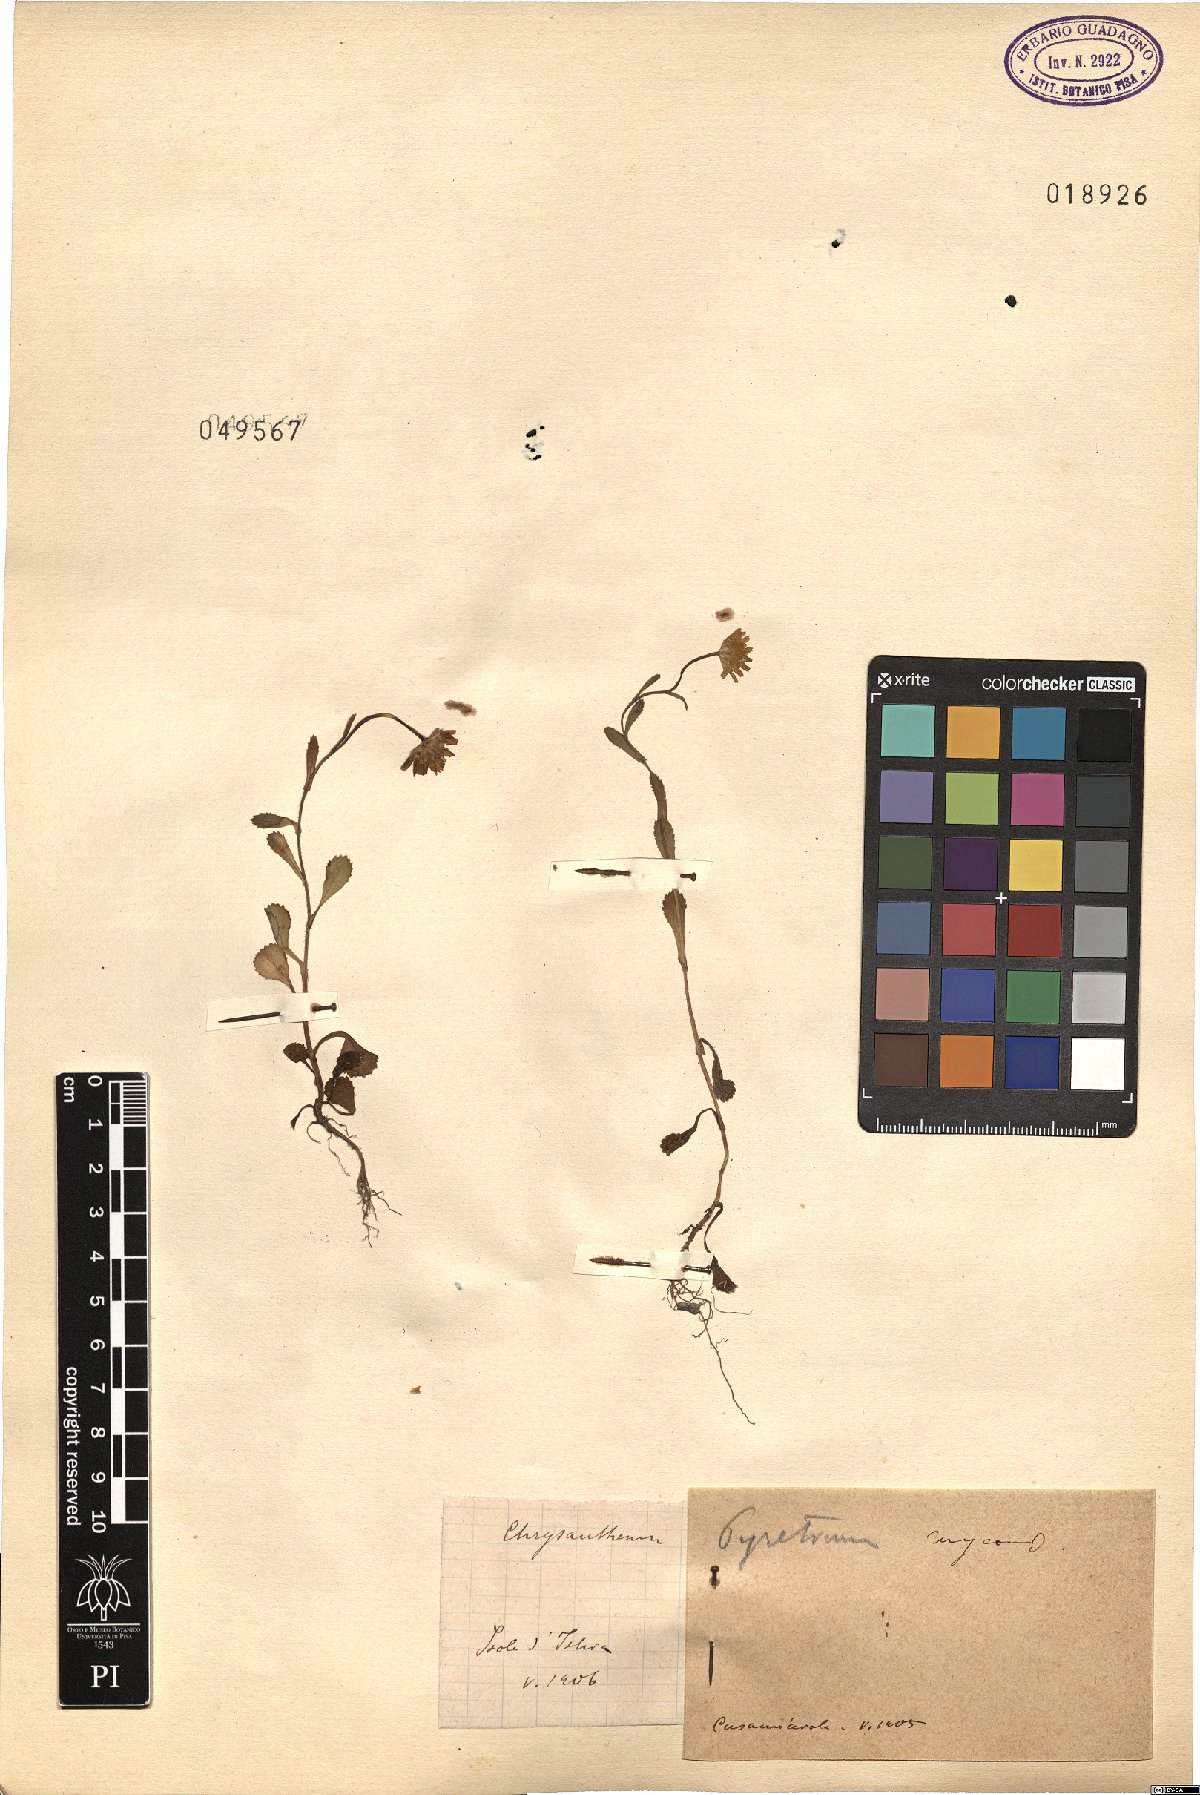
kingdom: Plantae
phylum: Tracheophyta
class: Magnoliopsida
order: Asterales
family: Asteraceae
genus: Chrysanthemum
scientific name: Chrysanthemum
